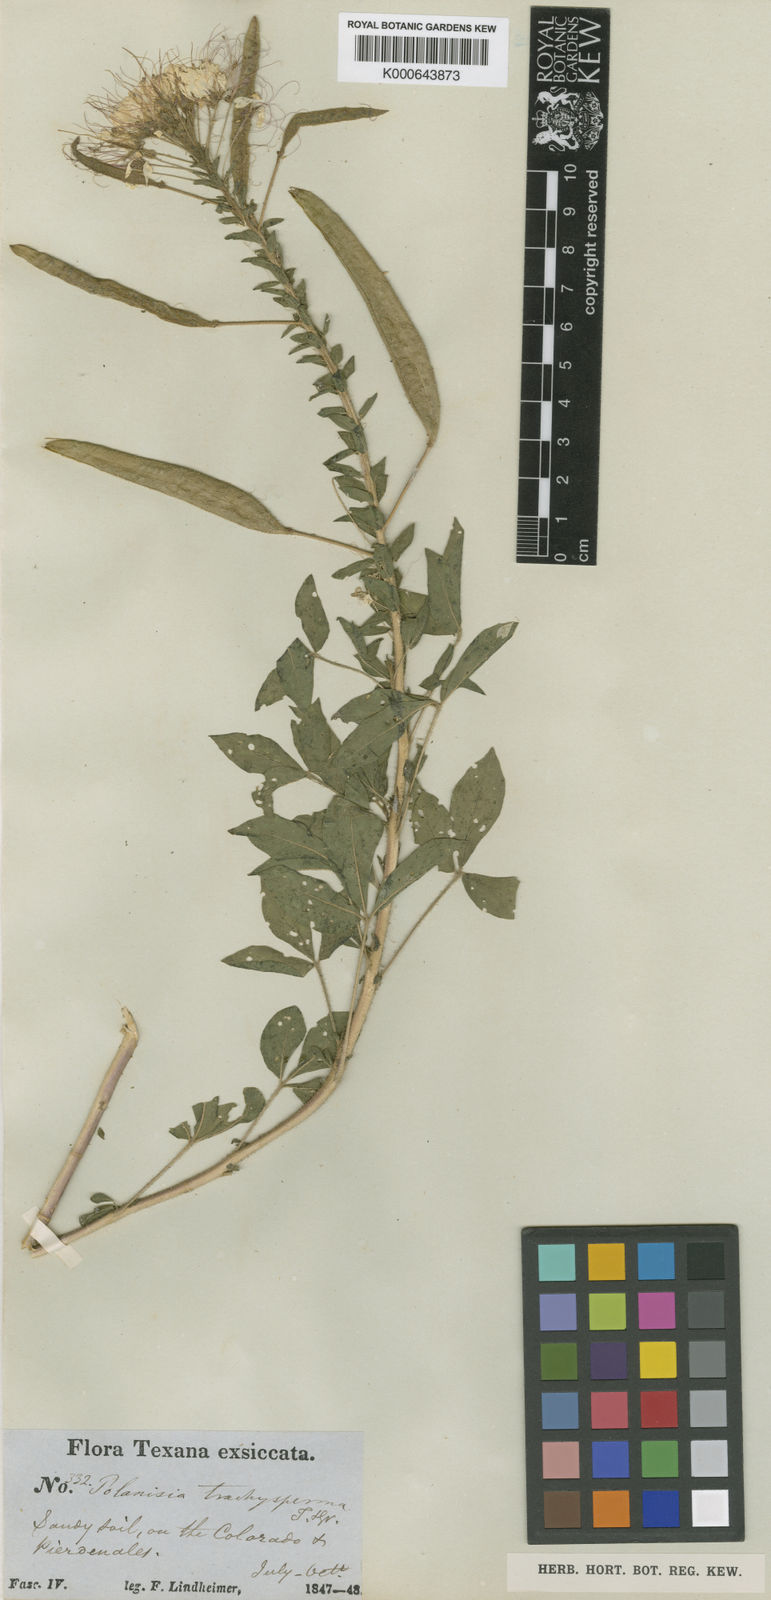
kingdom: Plantae
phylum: Tracheophyta
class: Magnoliopsida
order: Brassicales
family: Cleomaceae
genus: Polanisia
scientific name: Polanisia trachysperma
